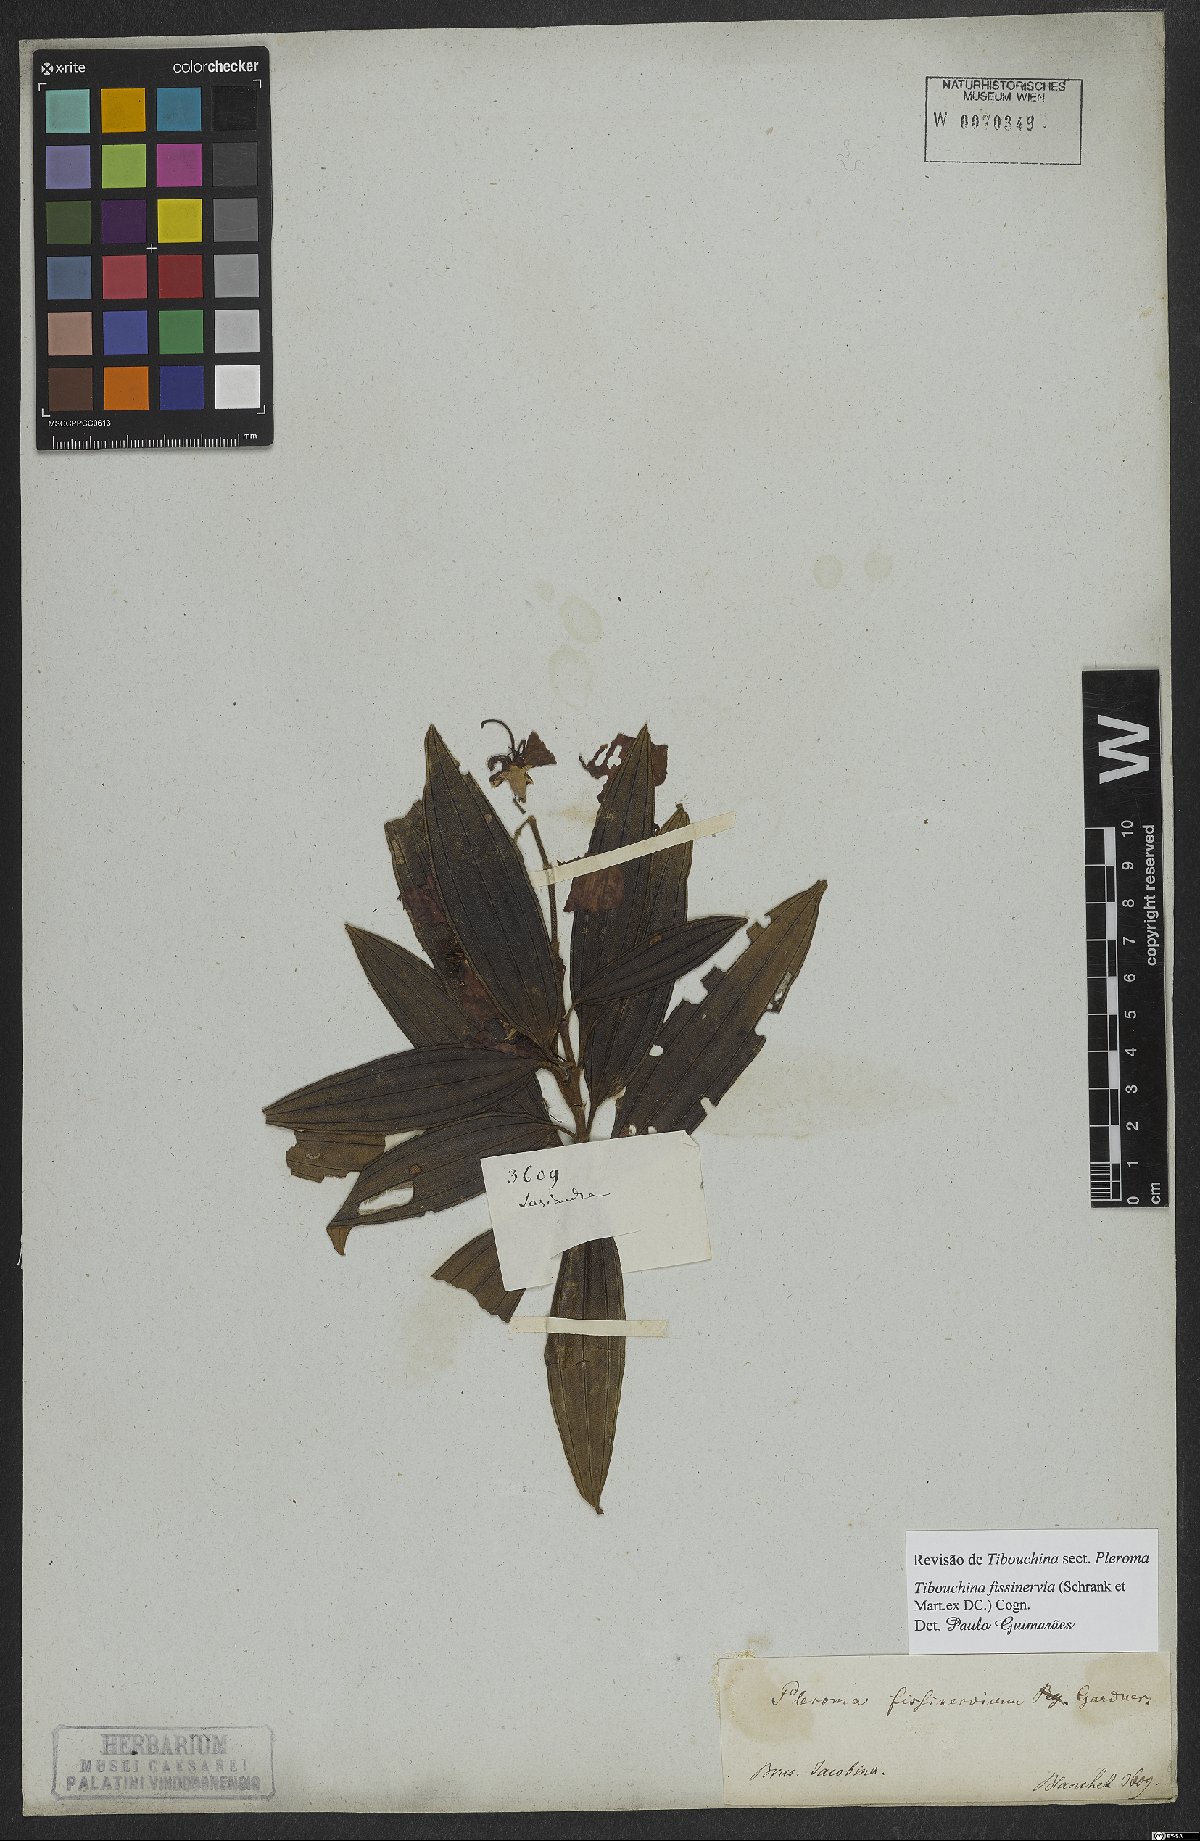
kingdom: Plantae
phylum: Tracheophyta
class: Magnoliopsida
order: Myrtales
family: Melastomataceae
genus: Pleroma
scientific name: Pleroma fissinervium
